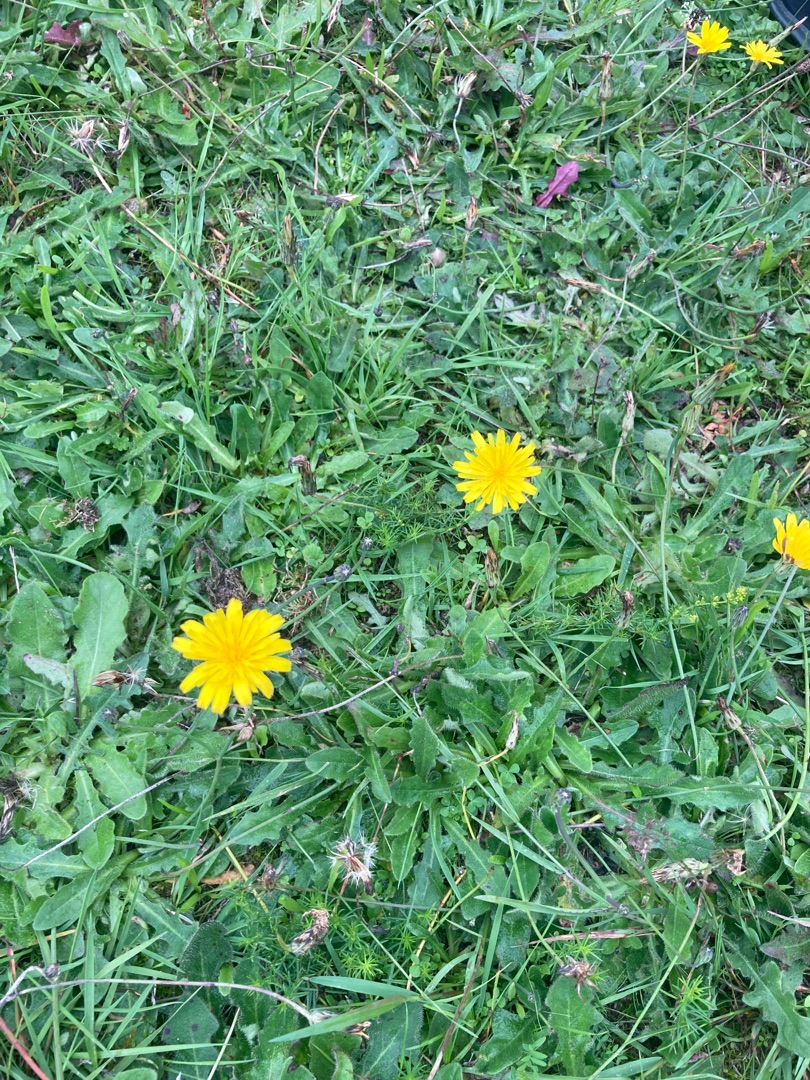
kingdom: Plantae
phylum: Tracheophyta
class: Magnoliopsida
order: Asterales
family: Asteraceae
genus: Hypochaeris
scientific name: Hypochaeris radicata
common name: Almindelig kongepen
